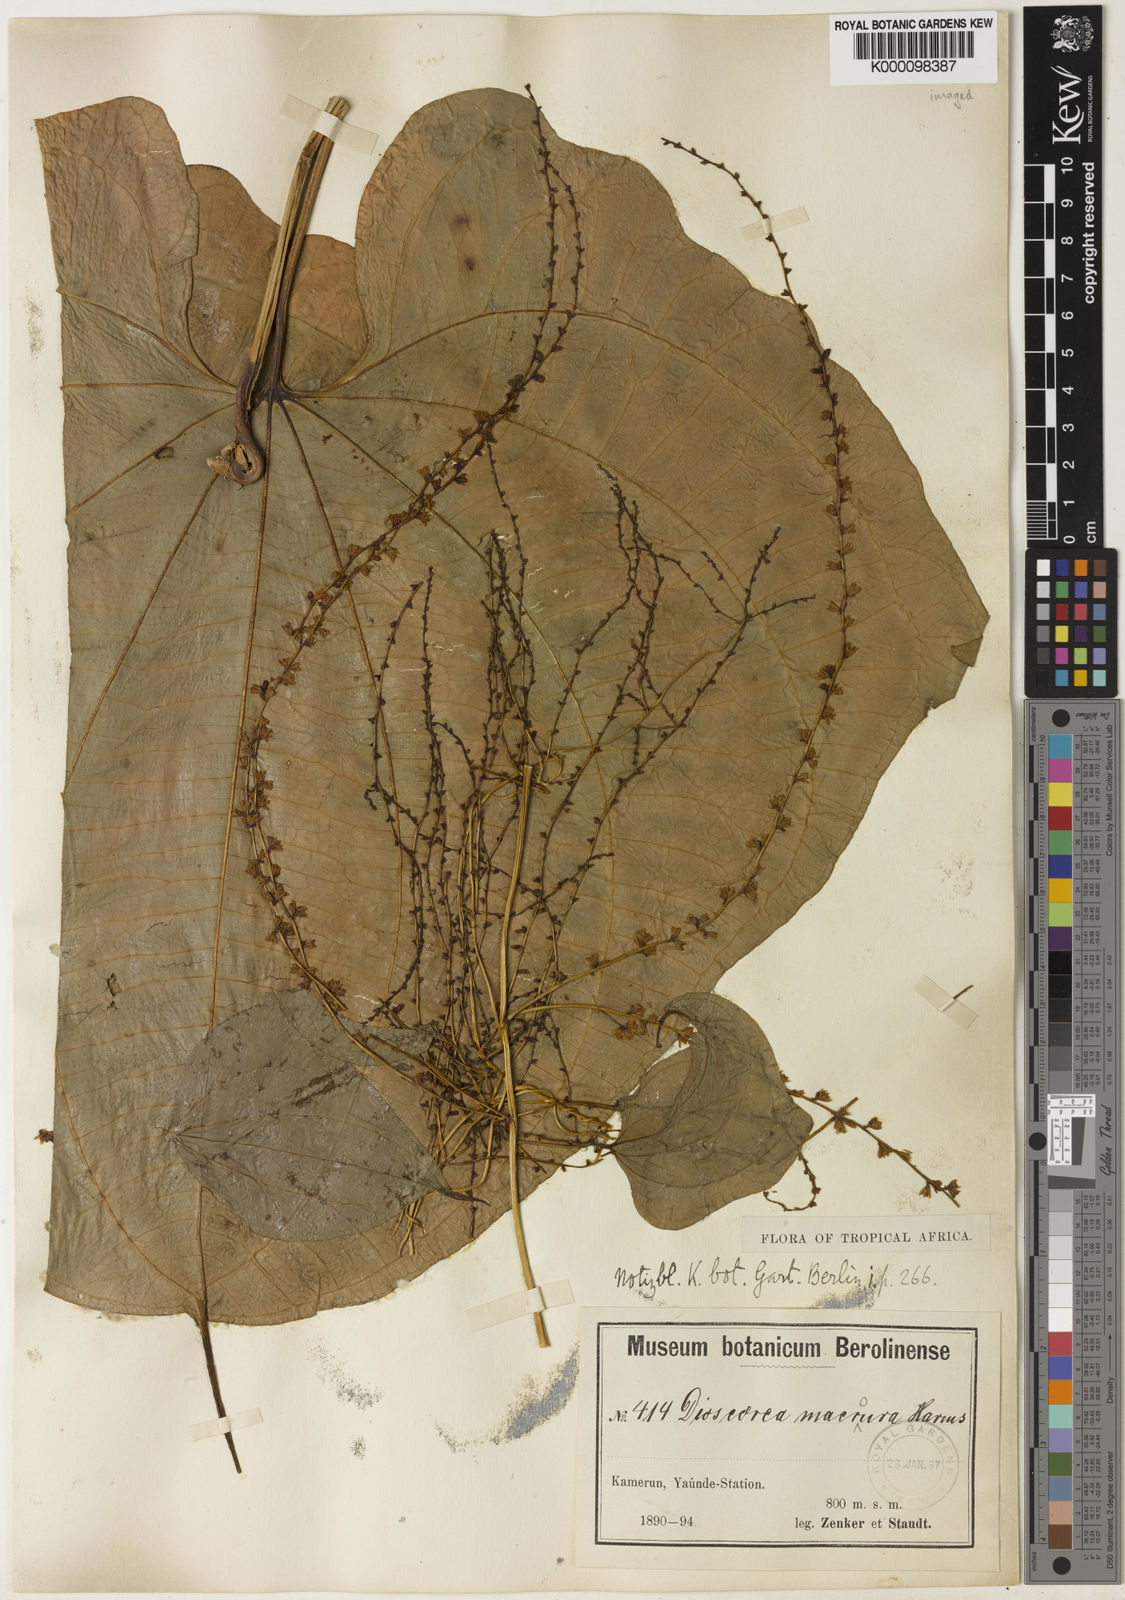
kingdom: Plantae
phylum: Tracheophyta
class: Liliopsida
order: Dioscoreales
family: Dioscoreaceae
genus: Dioscorea
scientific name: Dioscorea sansibarensis
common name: Zanzibar yam
